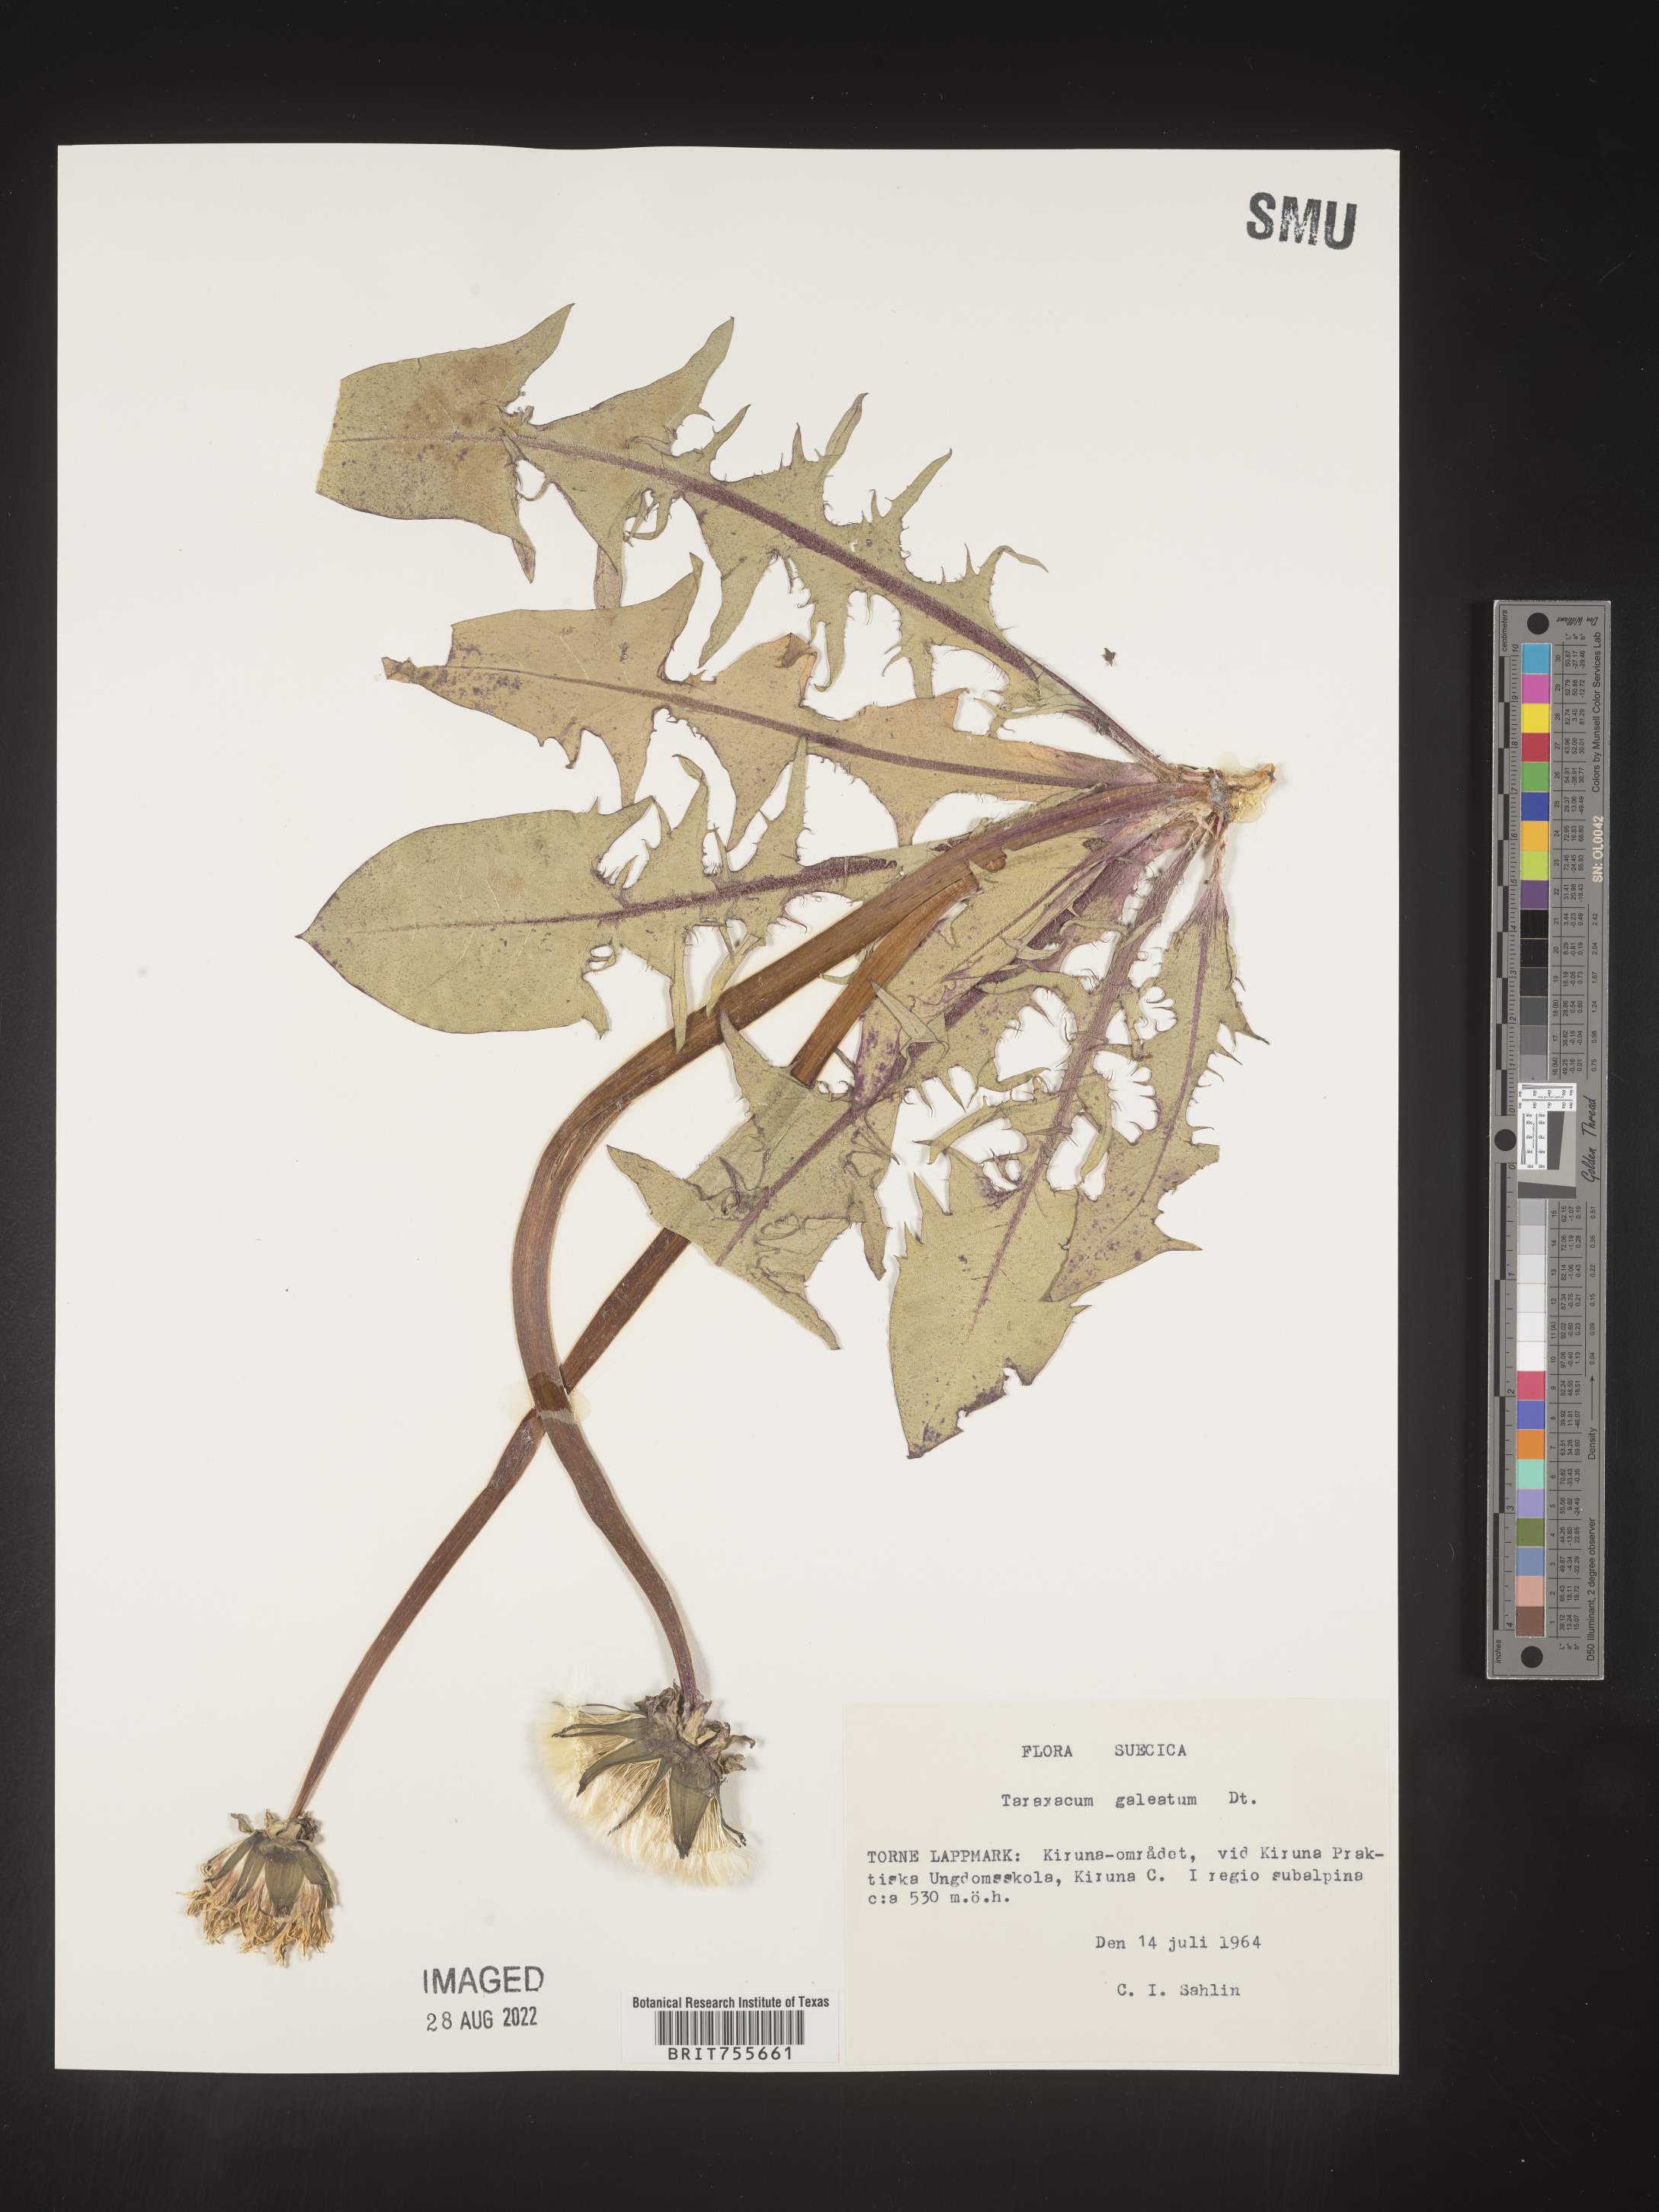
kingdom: Plantae
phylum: Tracheophyta
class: Magnoliopsida
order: Asterales
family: Asteraceae
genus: Taraxacum
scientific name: Taraxacum
